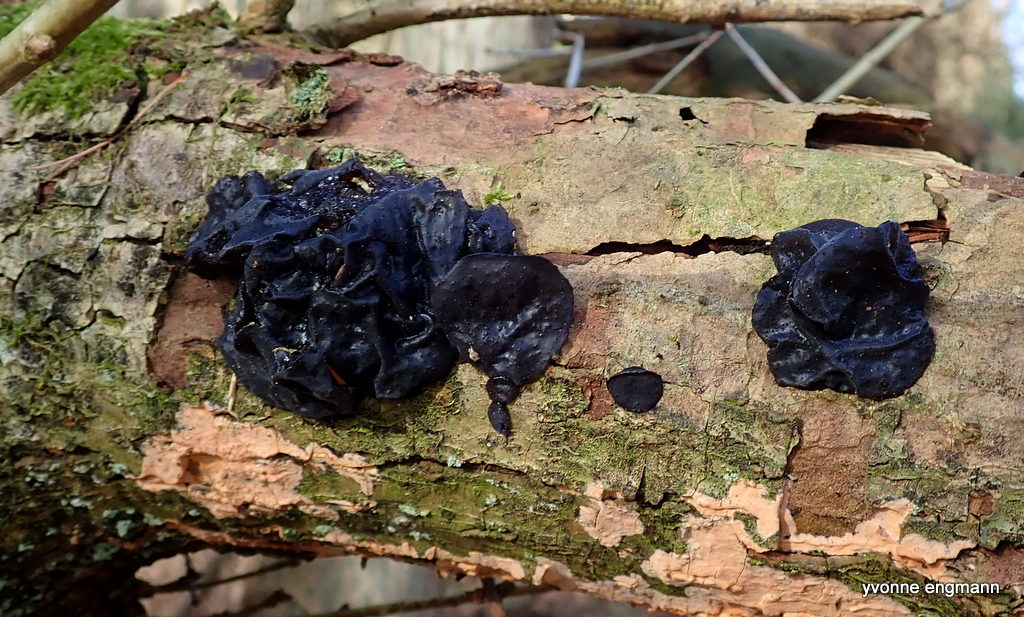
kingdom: Fungi
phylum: Basidiomycota
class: Agaricomycetes
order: Auriculariales
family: Auriculariaceae
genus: Exidia
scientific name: Exidia glandulosa
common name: ege-bævretop
